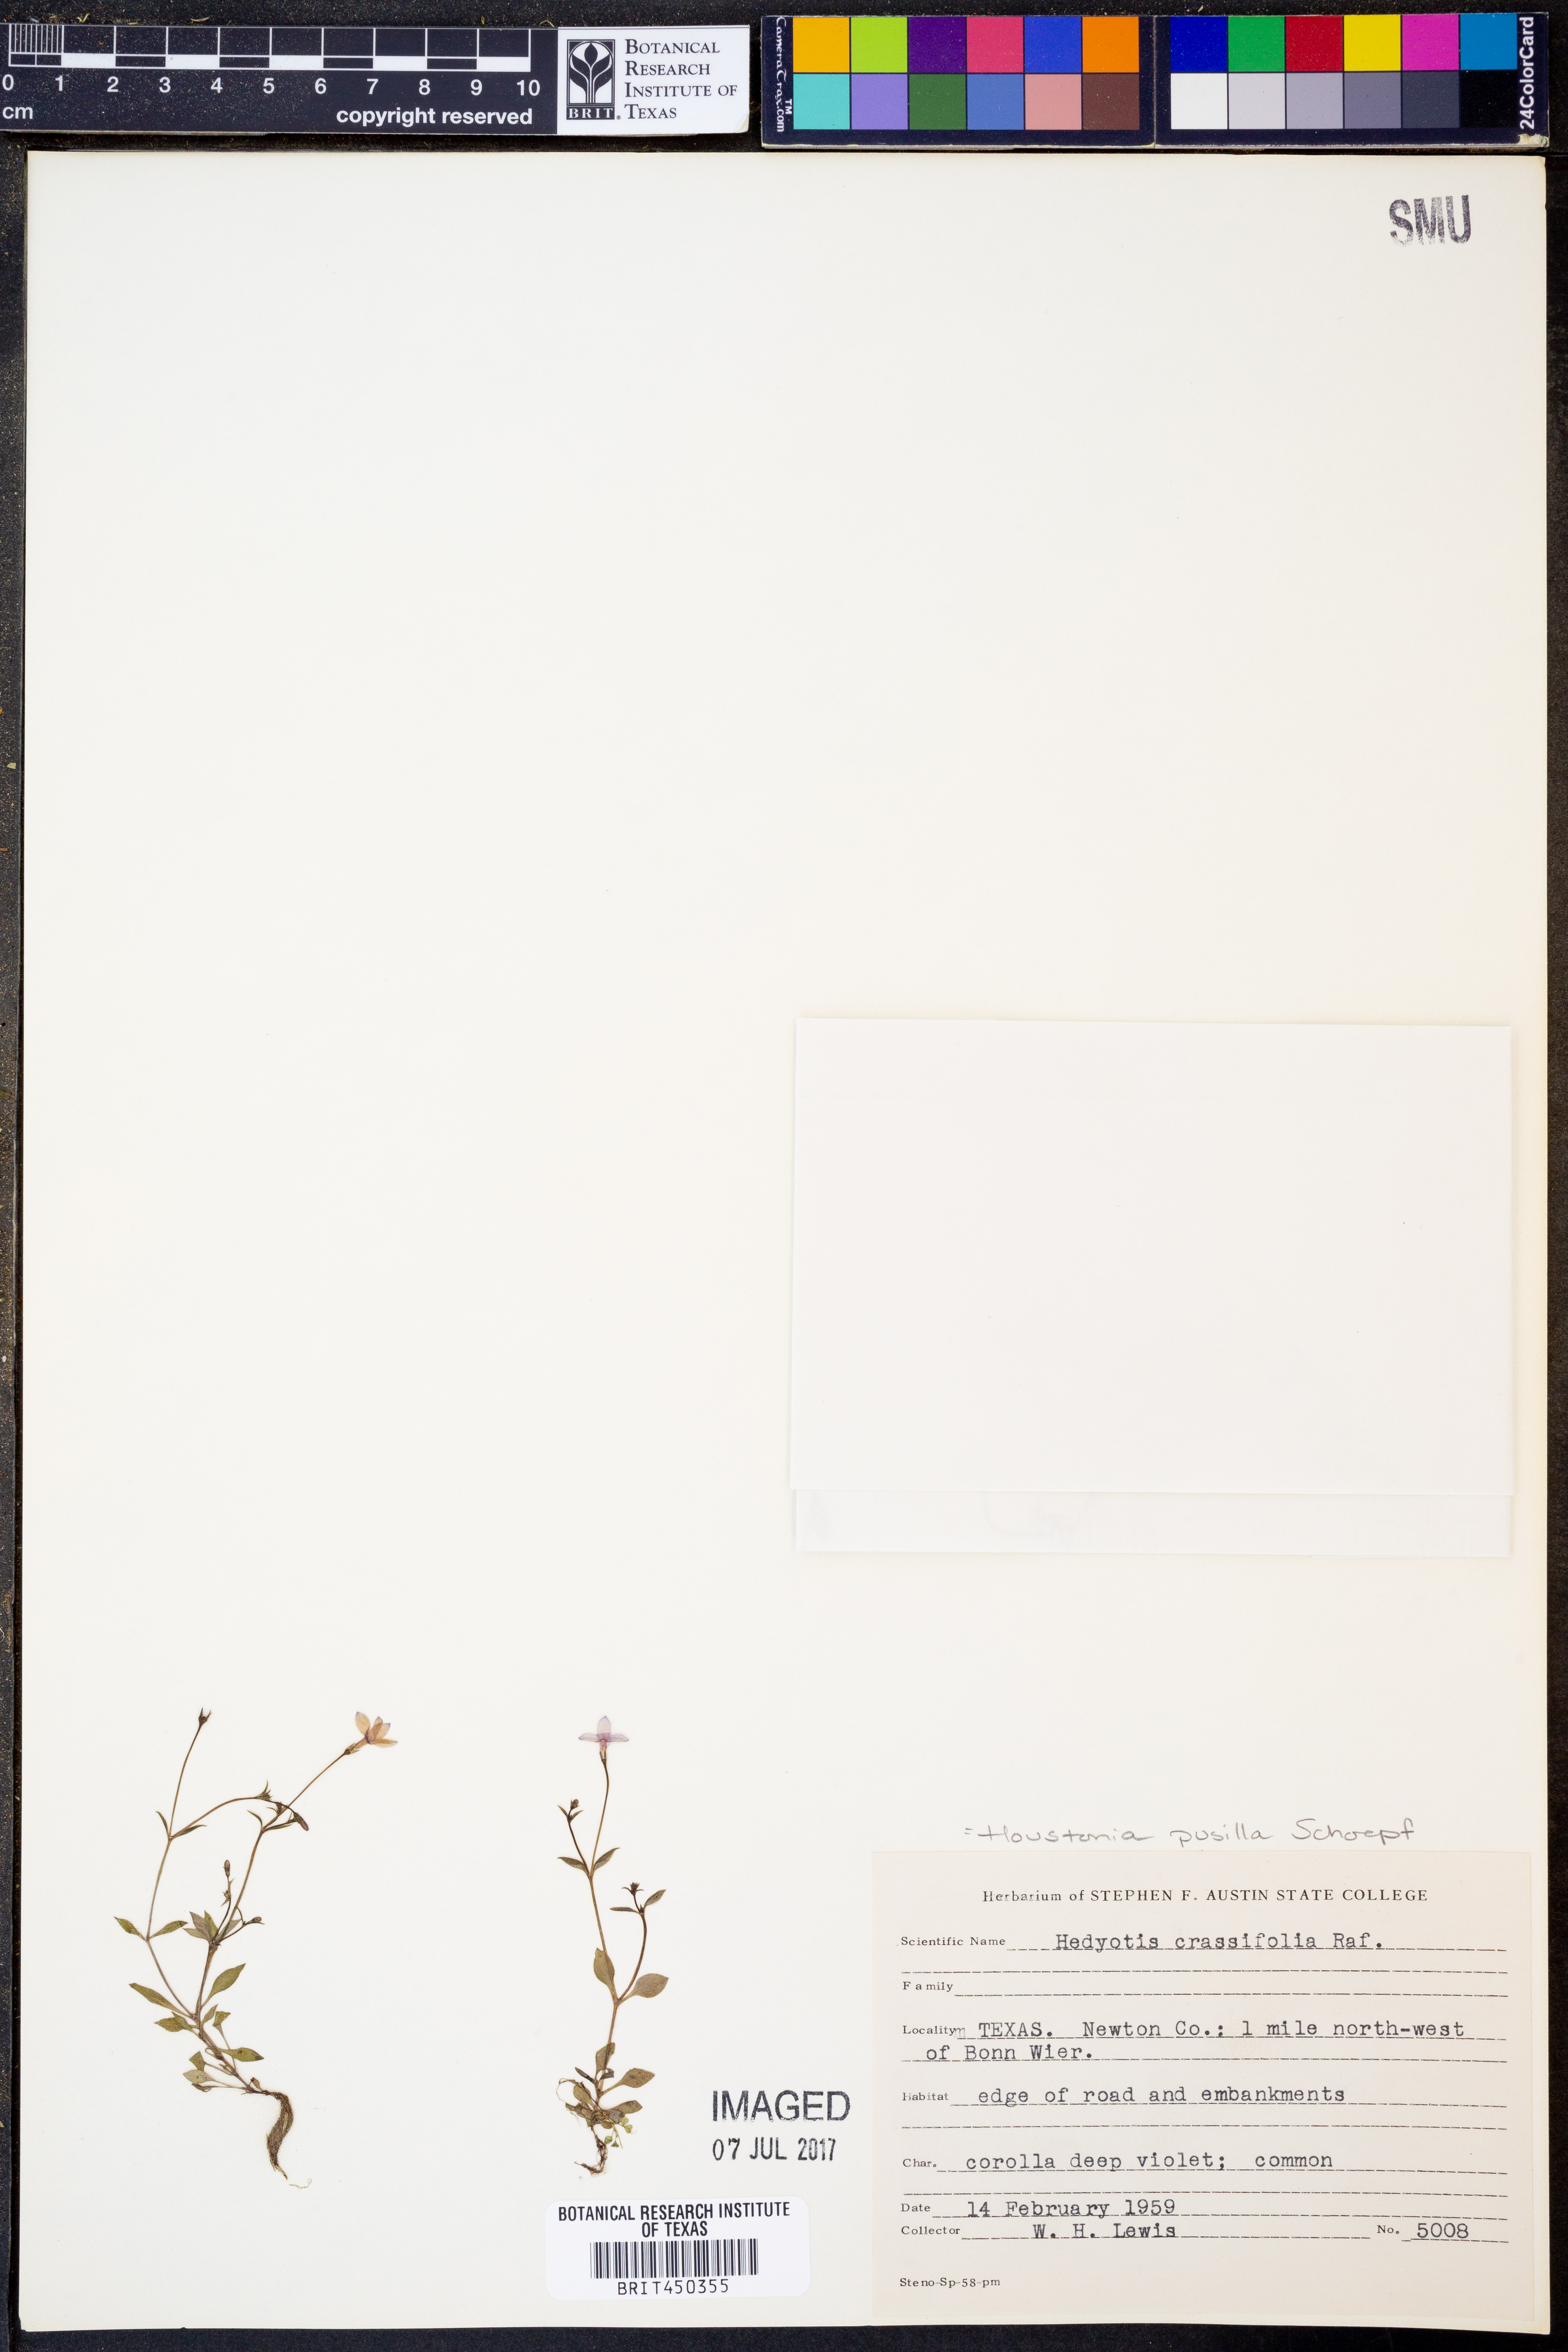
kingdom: Plantae
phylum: Tracheophyta
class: Magnoliopsida
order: Gentianales
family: Rubiaceae
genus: Houstonia
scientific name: Houstonia pusilla
